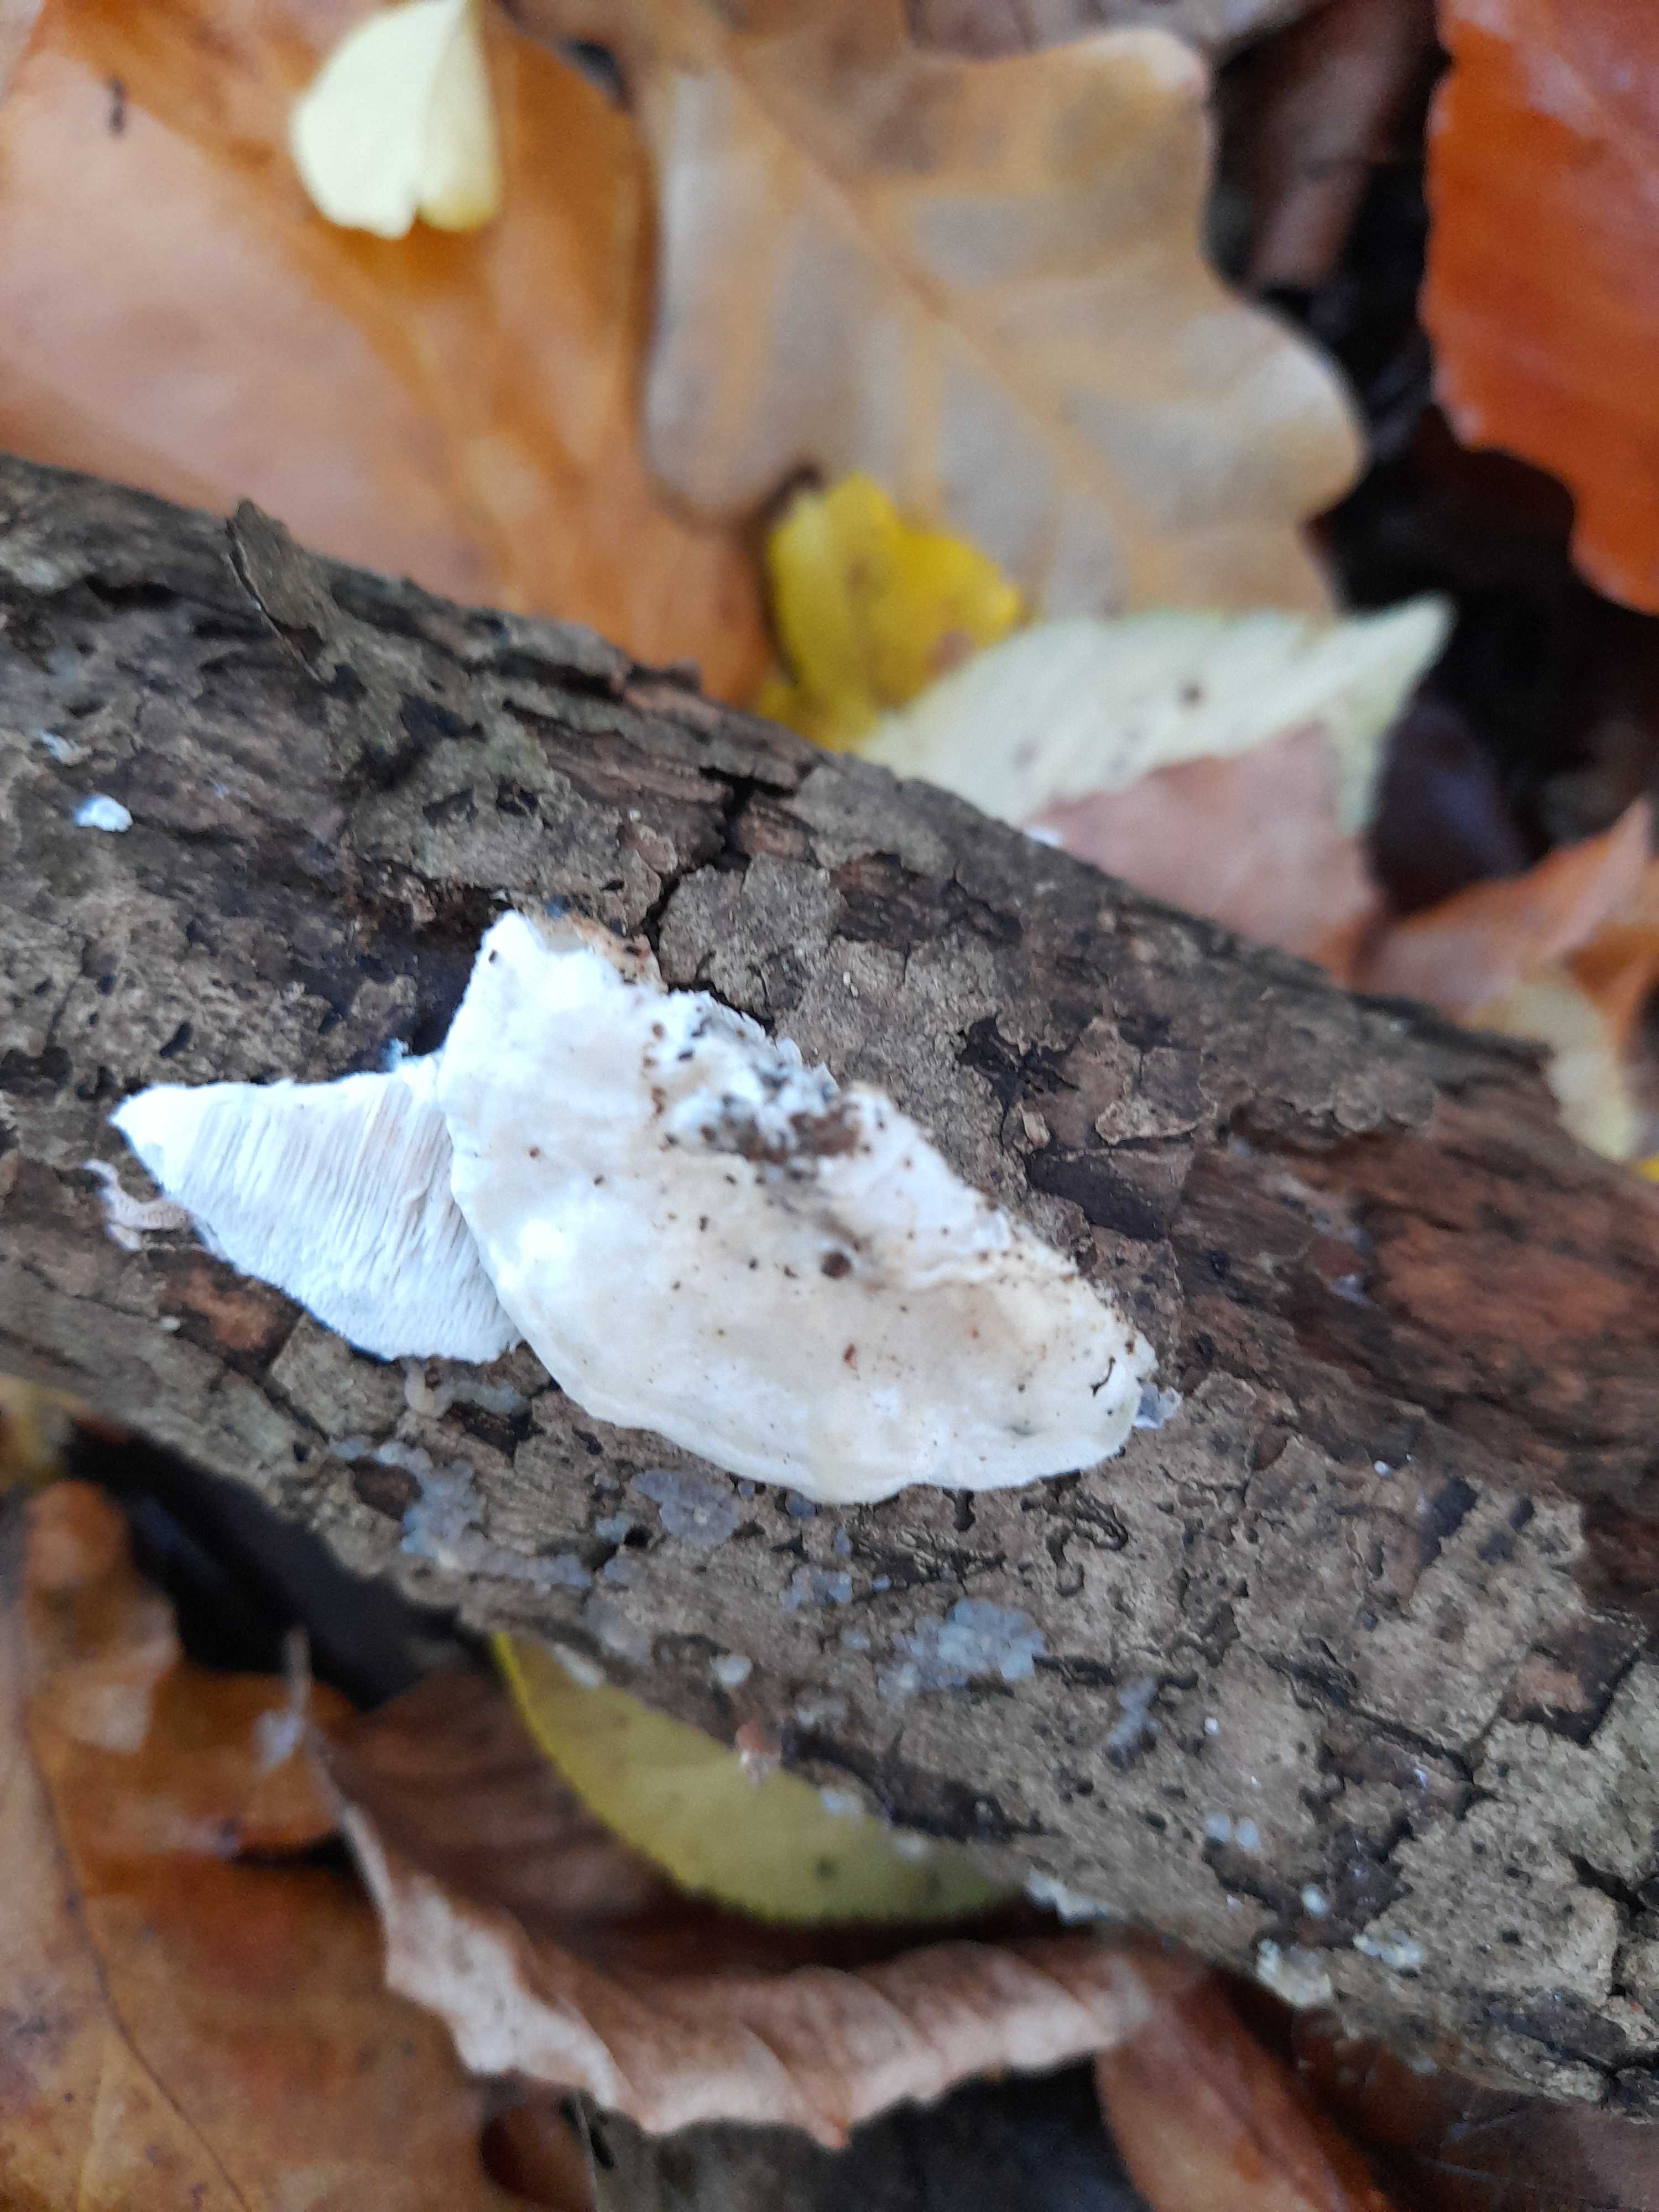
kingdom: Fungi
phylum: Basidiomycota
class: Agaricomycetes
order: Polyporales
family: Incrustoporiaceae
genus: Tyromyces
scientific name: Tyromyces lacteus
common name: mælkehvid kødporesvamp
